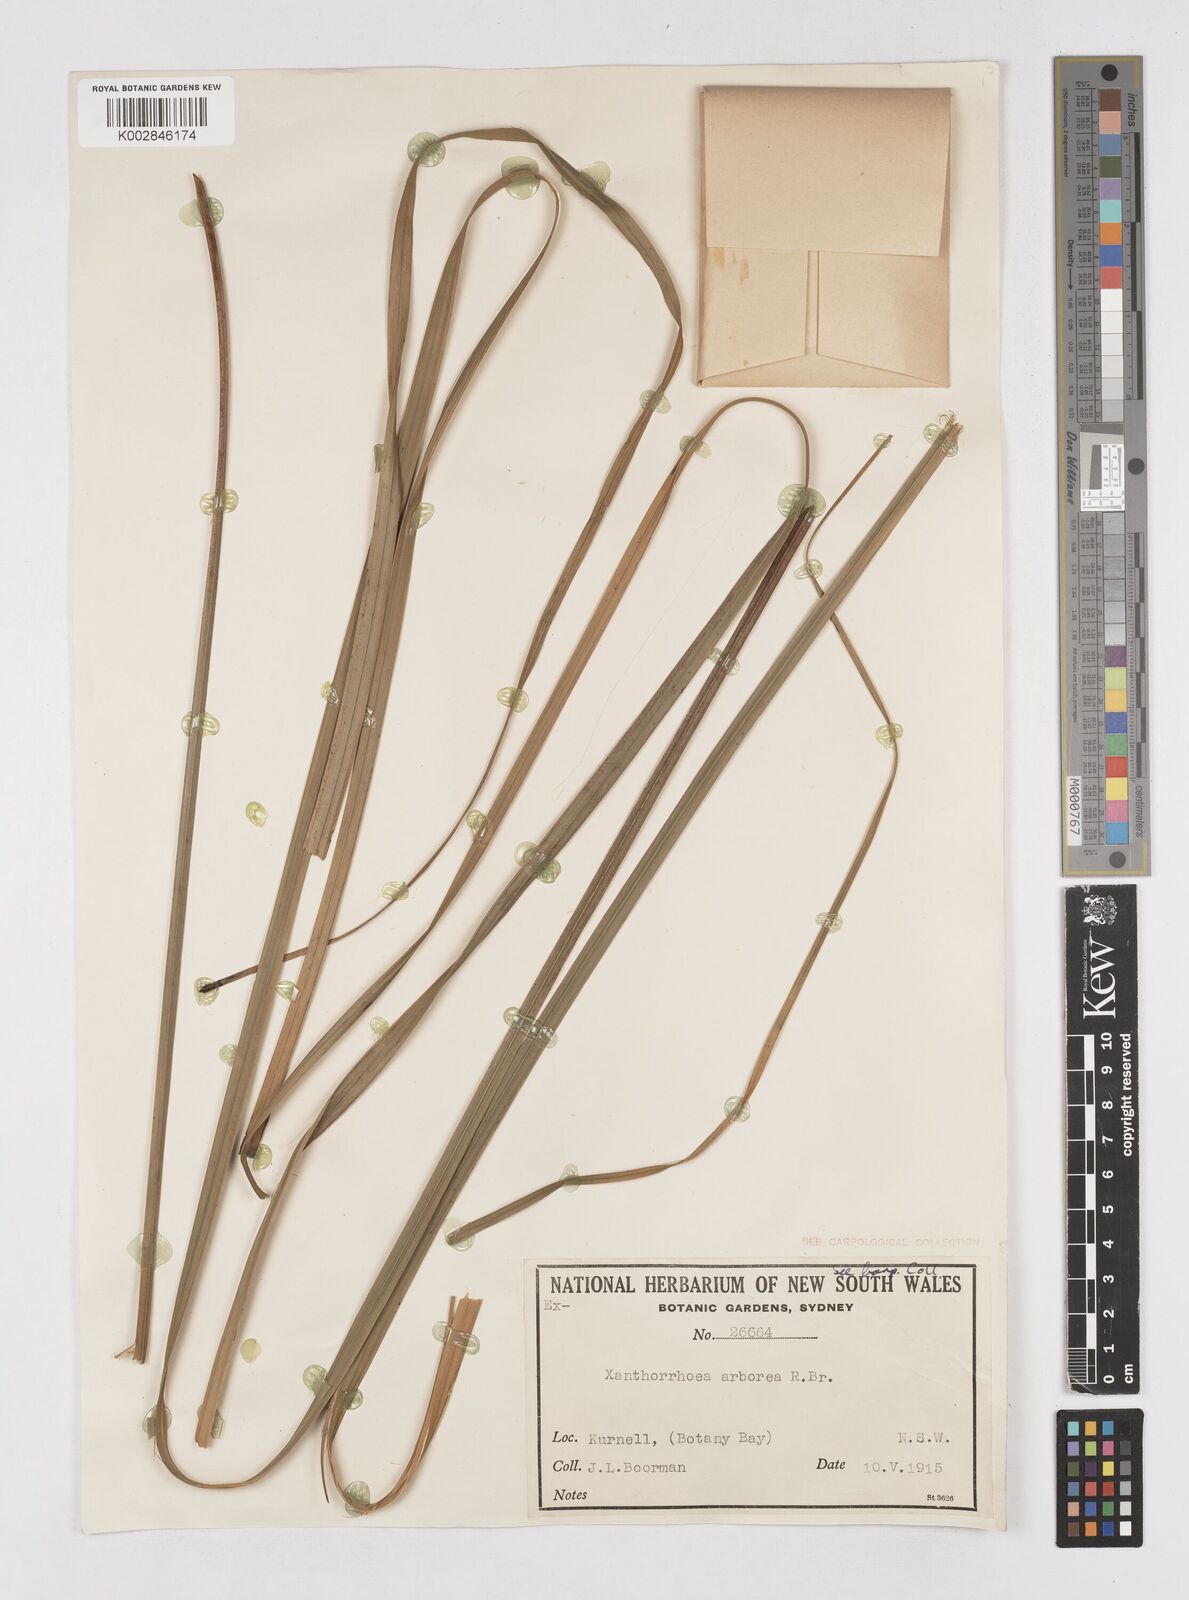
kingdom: Plantae
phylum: Tracheophyta
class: Liliopsida
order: Asparagales
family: Asphodelaceae
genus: Xanthorrhoea
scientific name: Xanthorrhoea arborea
